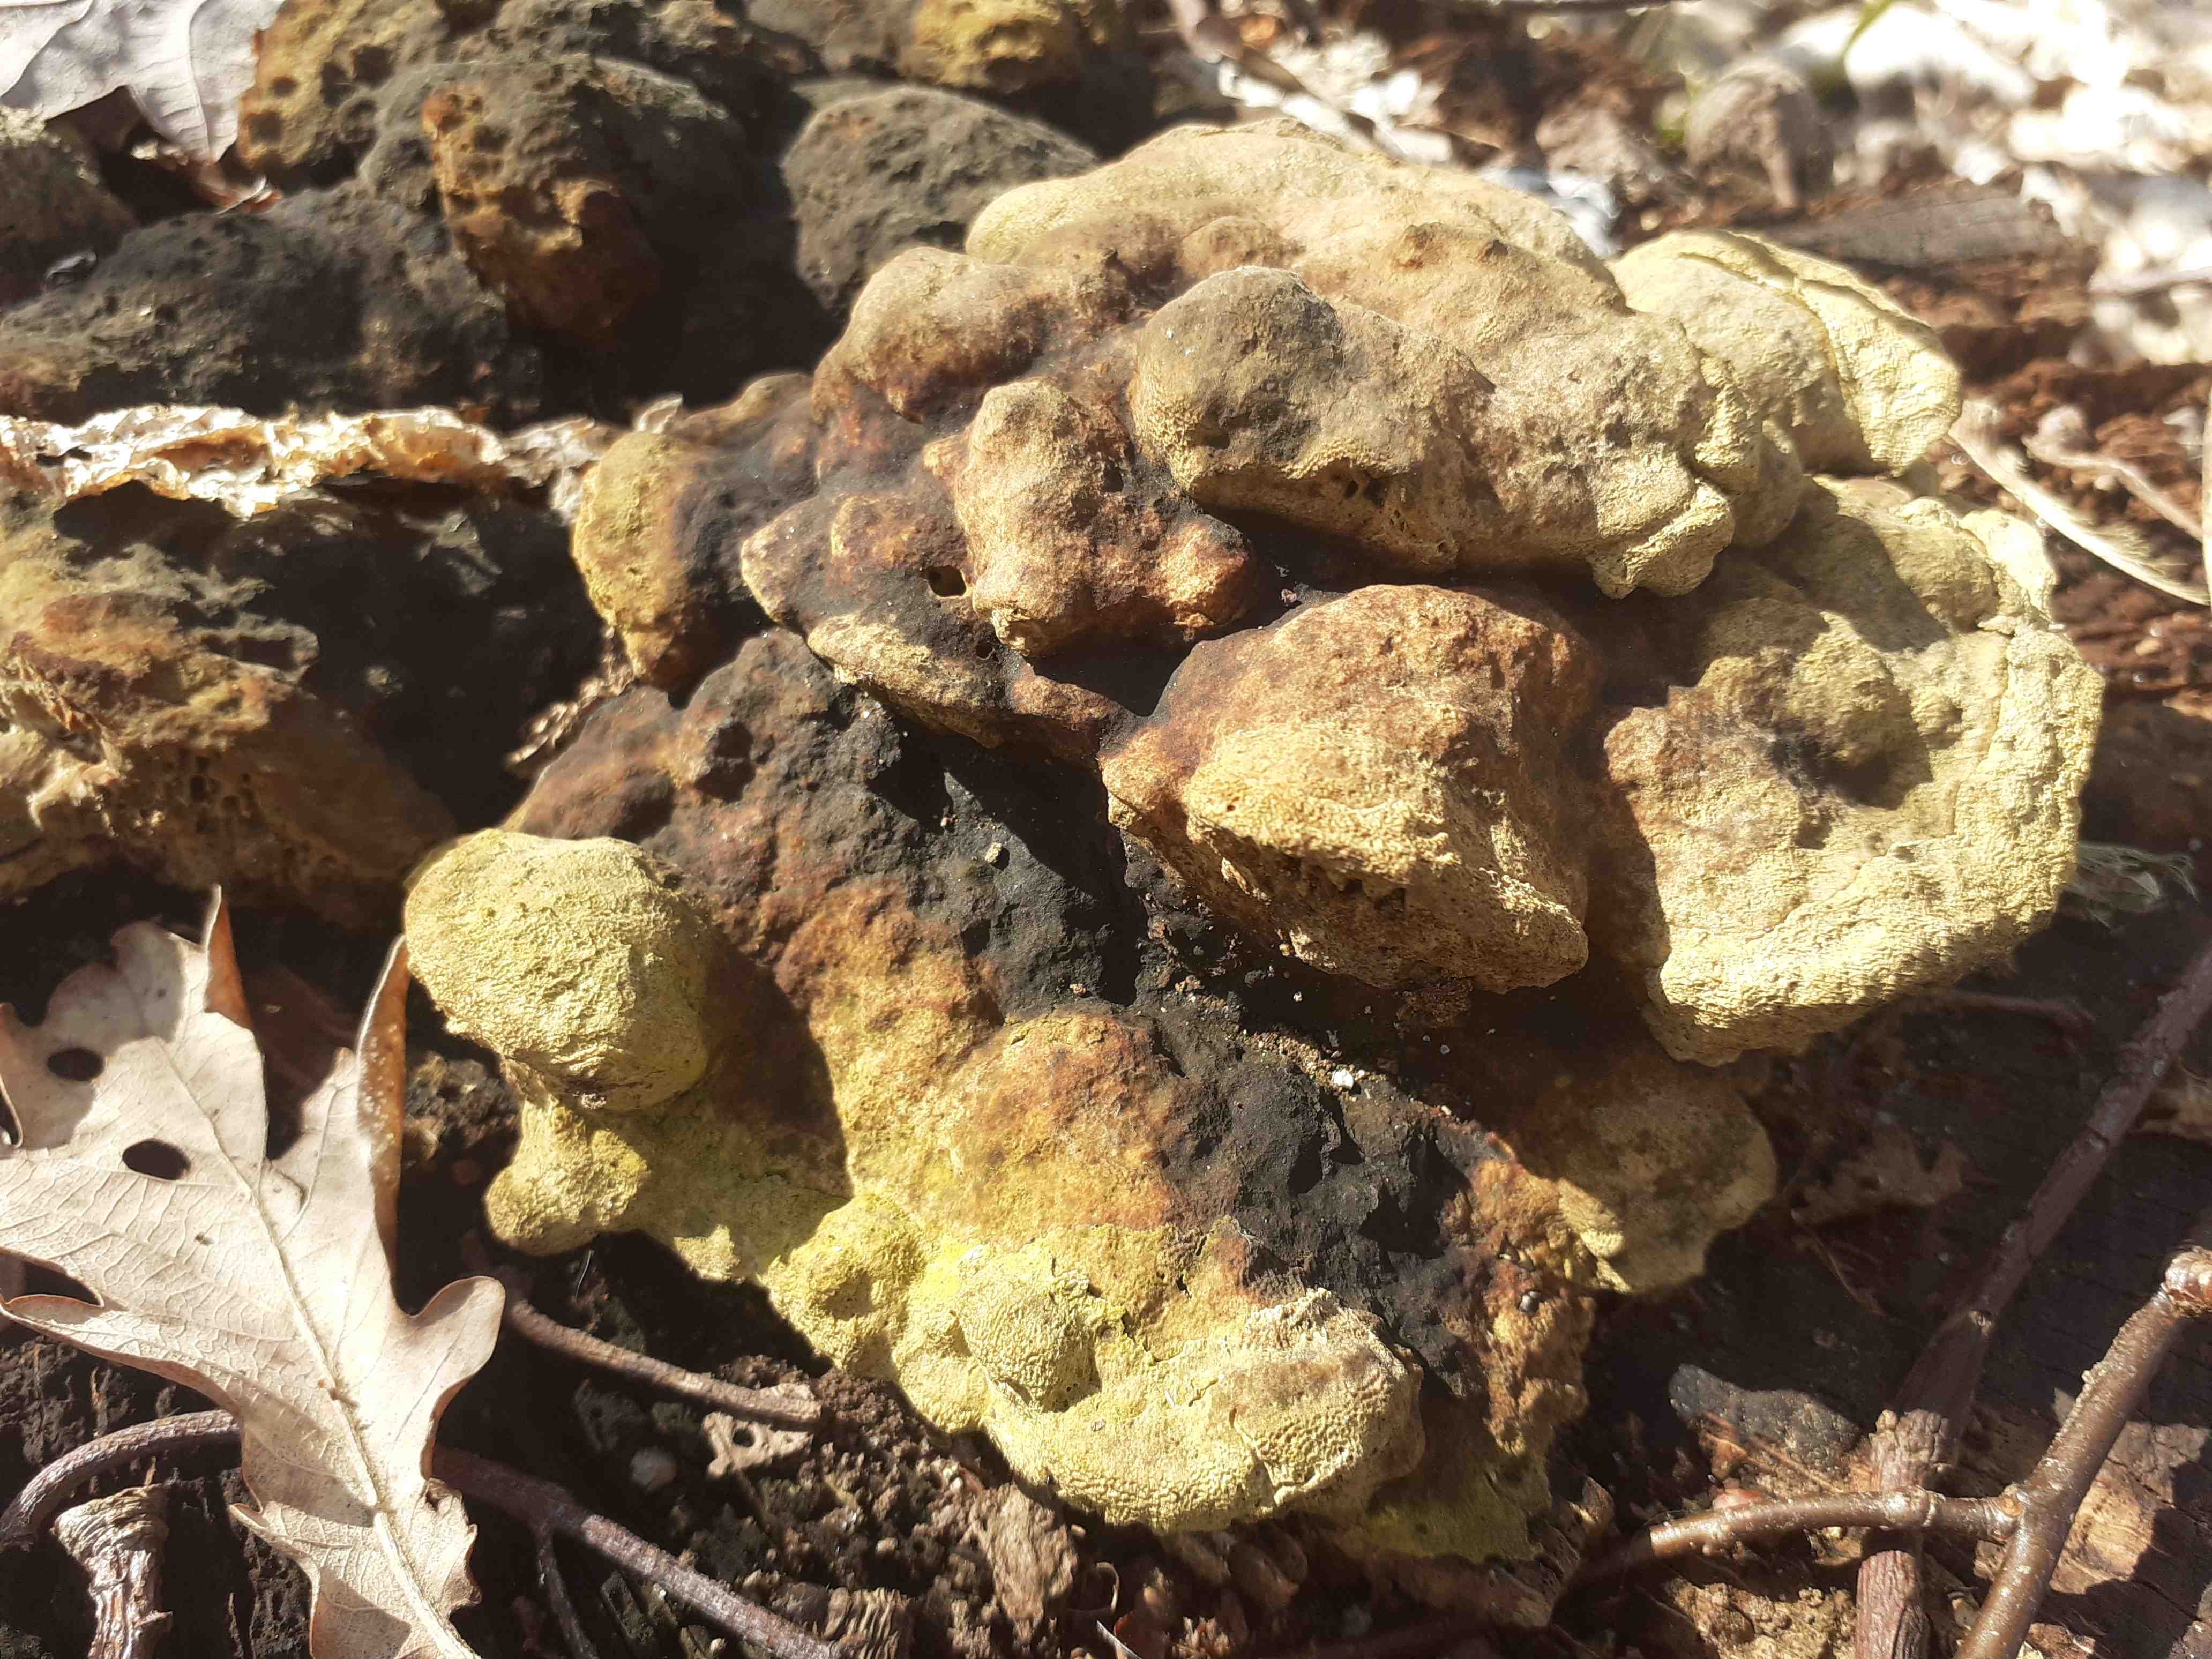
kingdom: Fungi
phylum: Basidiomycota
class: Agaricomycetes
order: Polyporales
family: Fomitopsidaceae
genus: Daedalea
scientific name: Daedalea quercina
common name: ege-labyrintsvamp
